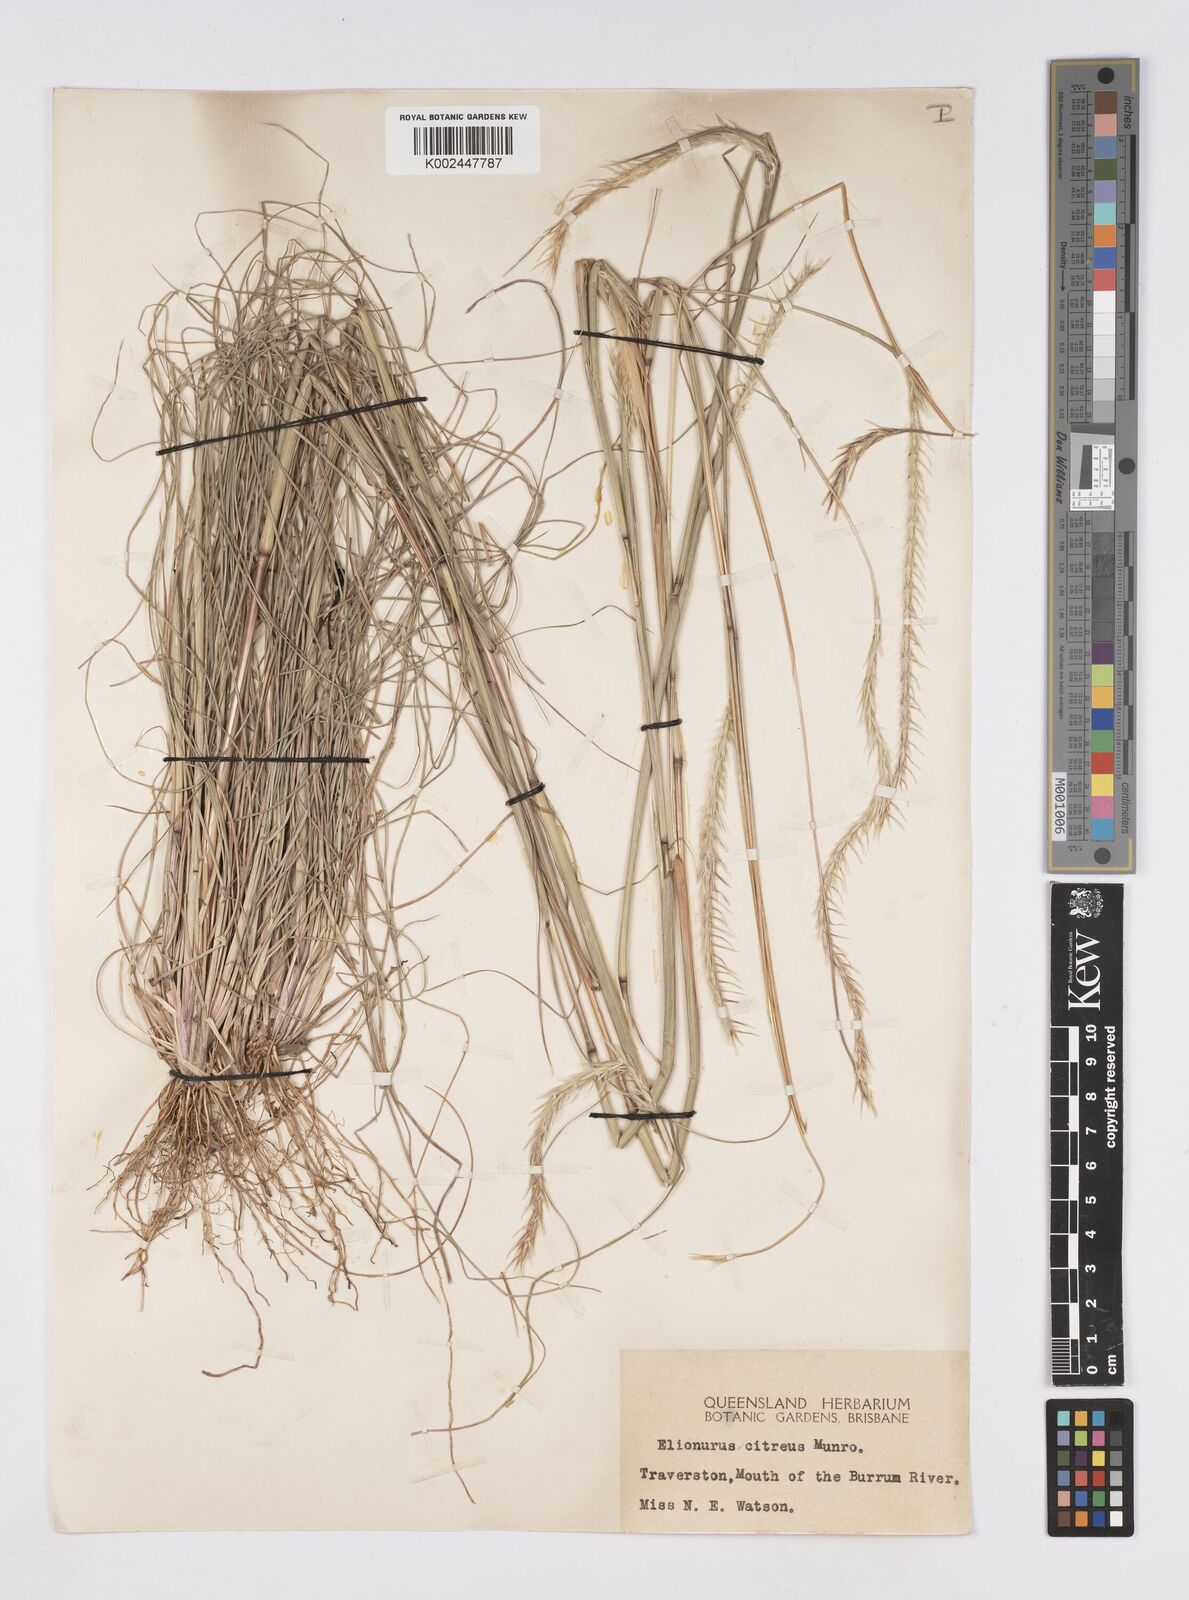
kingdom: Plantae
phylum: Tracheophyta
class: Liliopsida
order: Poales
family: Poaceae
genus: Elionurus
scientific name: Elionurus citreus
